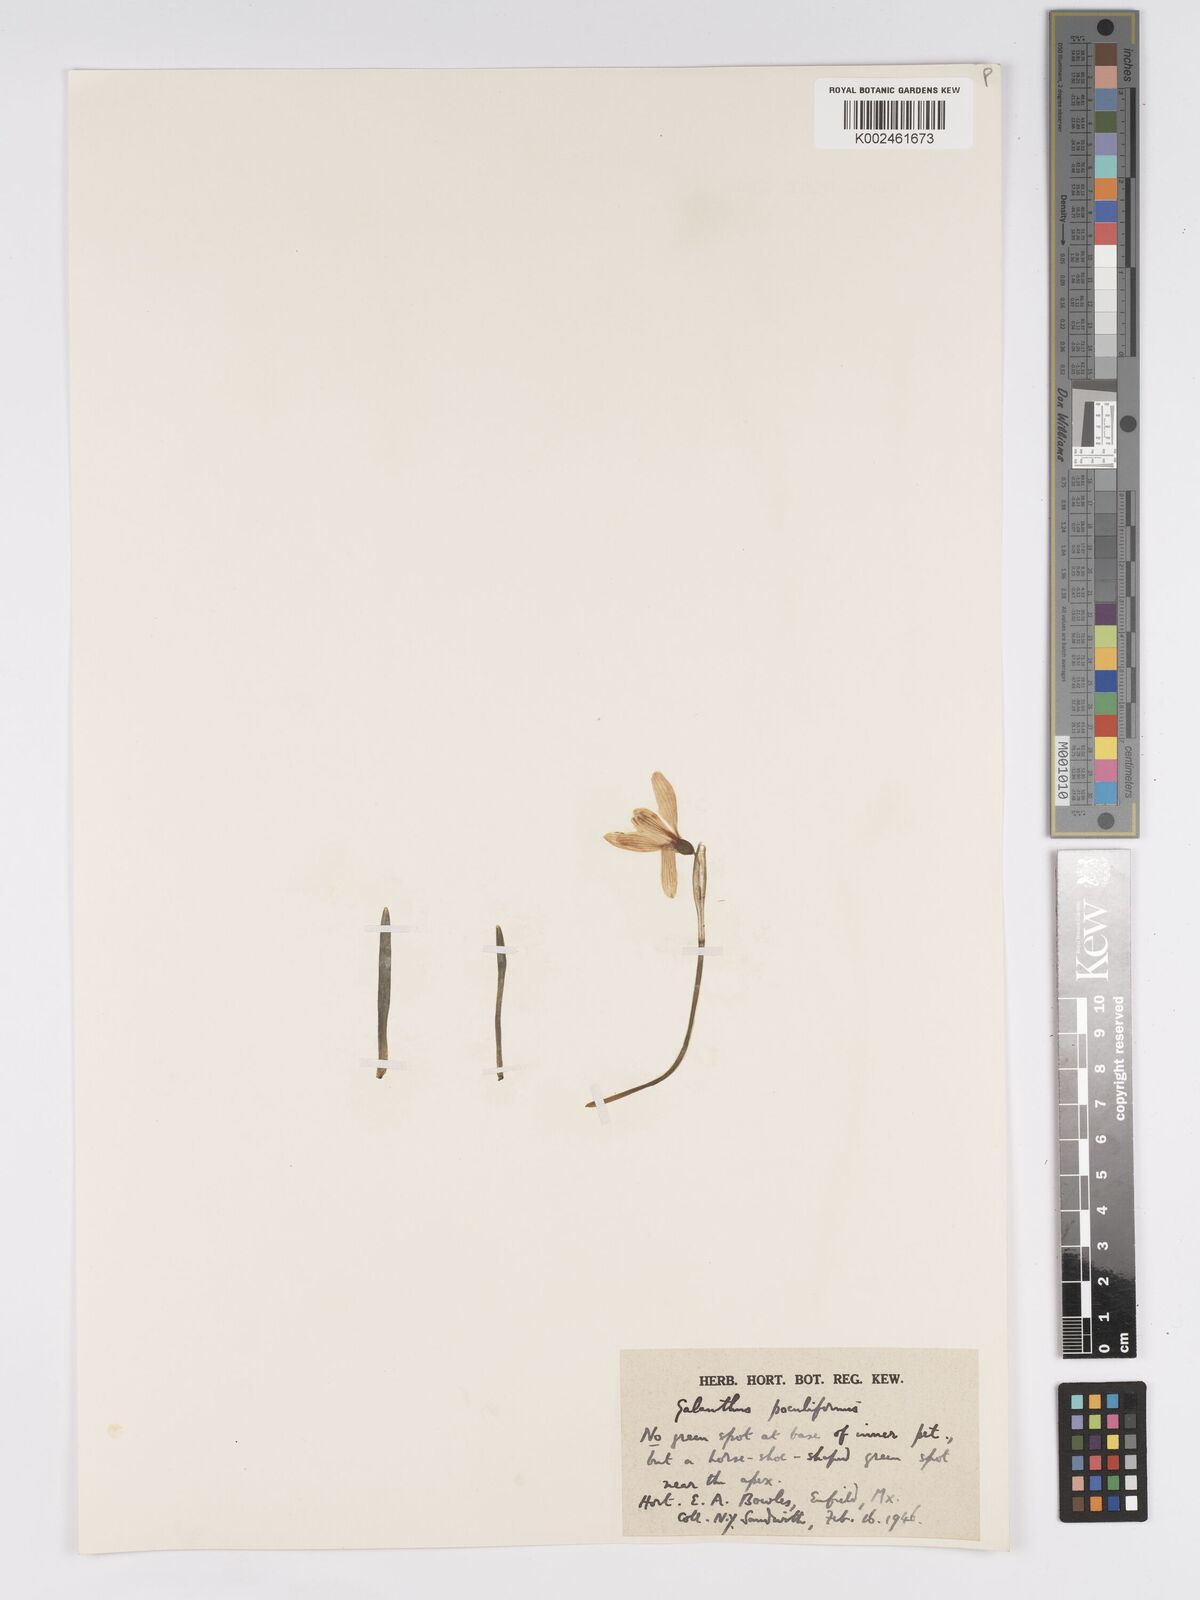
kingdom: Plantae
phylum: Tracheophyta
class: Liliopsida
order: Asparagales
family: Amaryllidaceae
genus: Galanthus
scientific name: Galanthus
